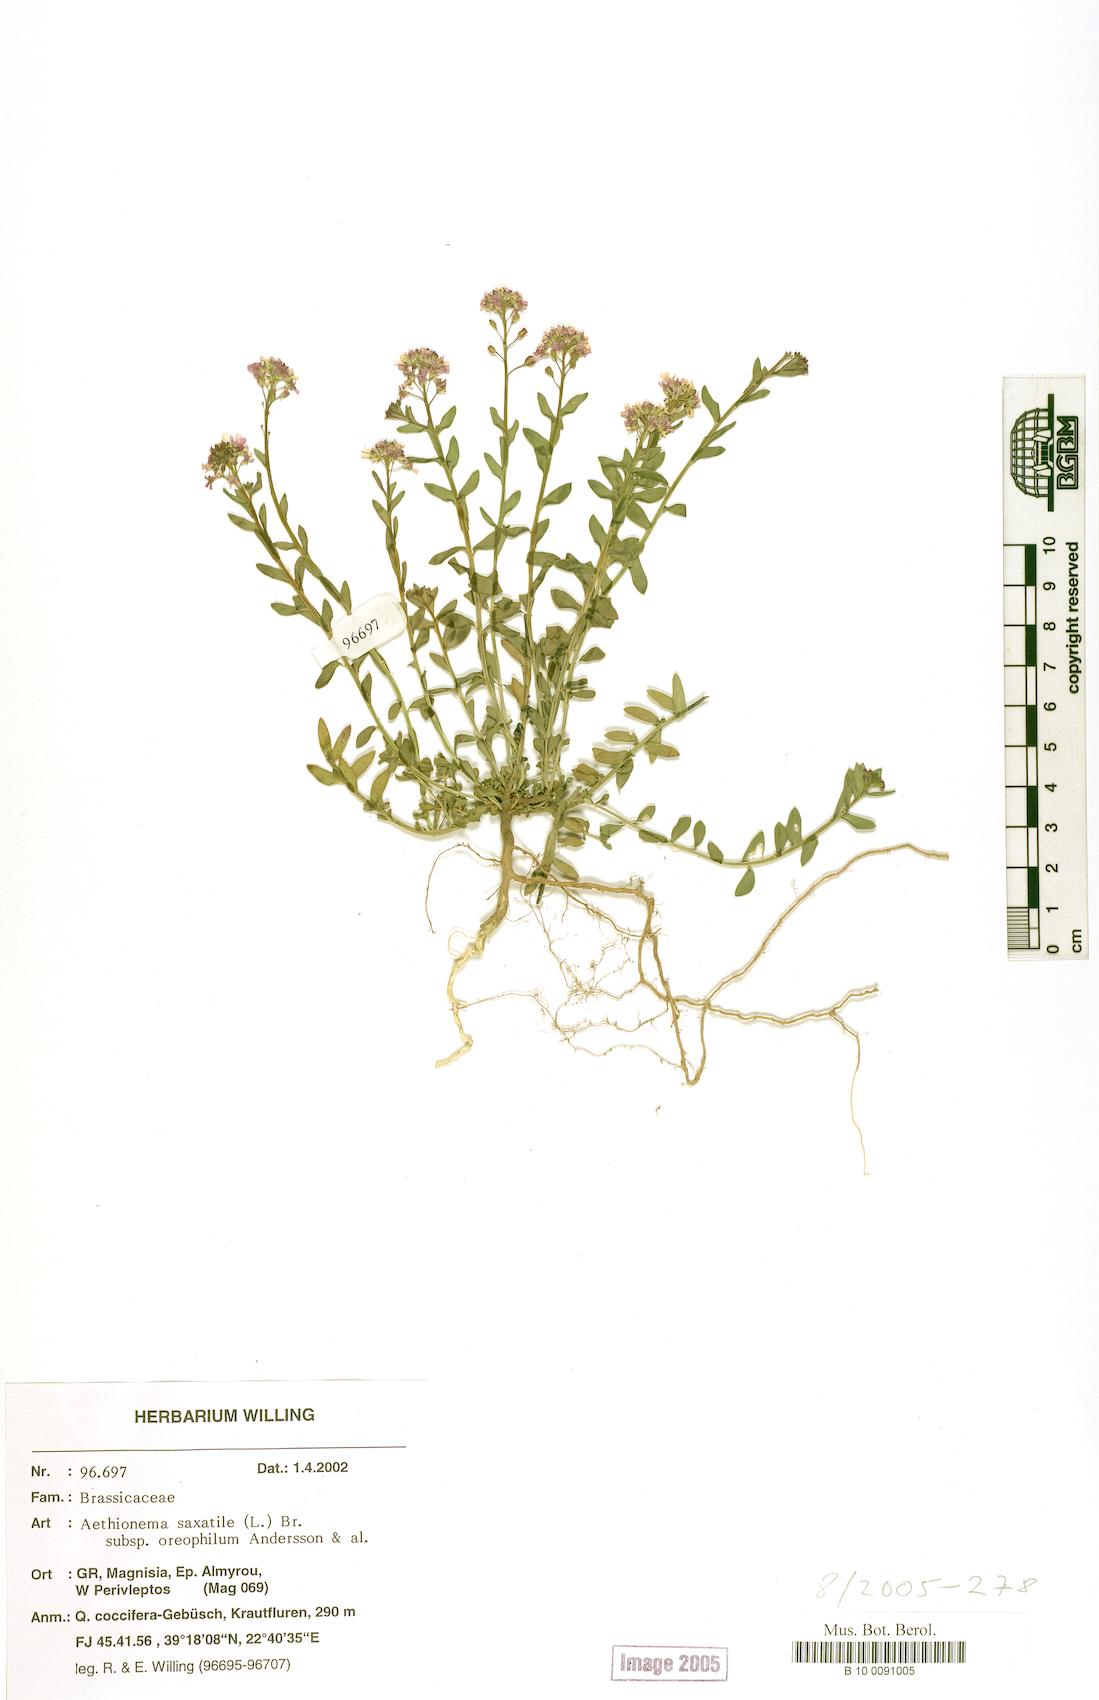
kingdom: Plantae
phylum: Tracheophyta
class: Magnoliopsida
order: Brassicales
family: Brassicaceae
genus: Aethionema
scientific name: Aethionema saxatile
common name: Burnt candytuft
